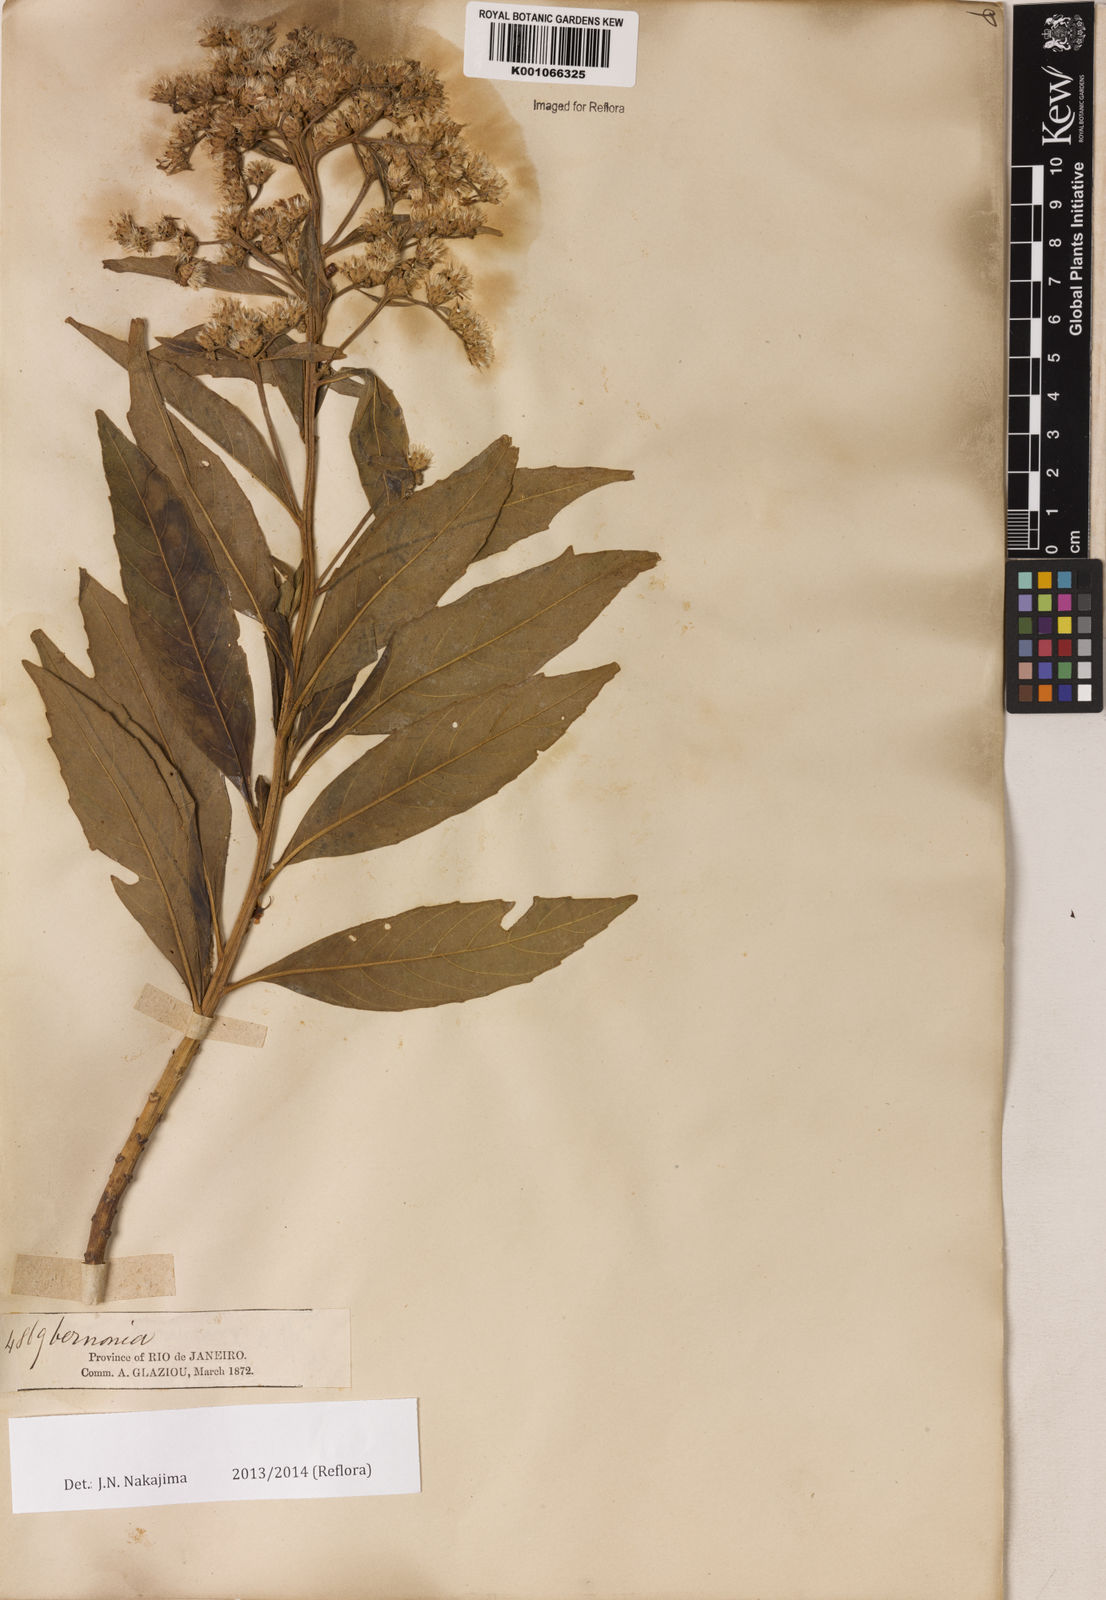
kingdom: Plantae
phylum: Tracheophyta
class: Magnoliopsida
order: Asterales
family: Asteraceae
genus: Vernonia
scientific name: Vernonia
